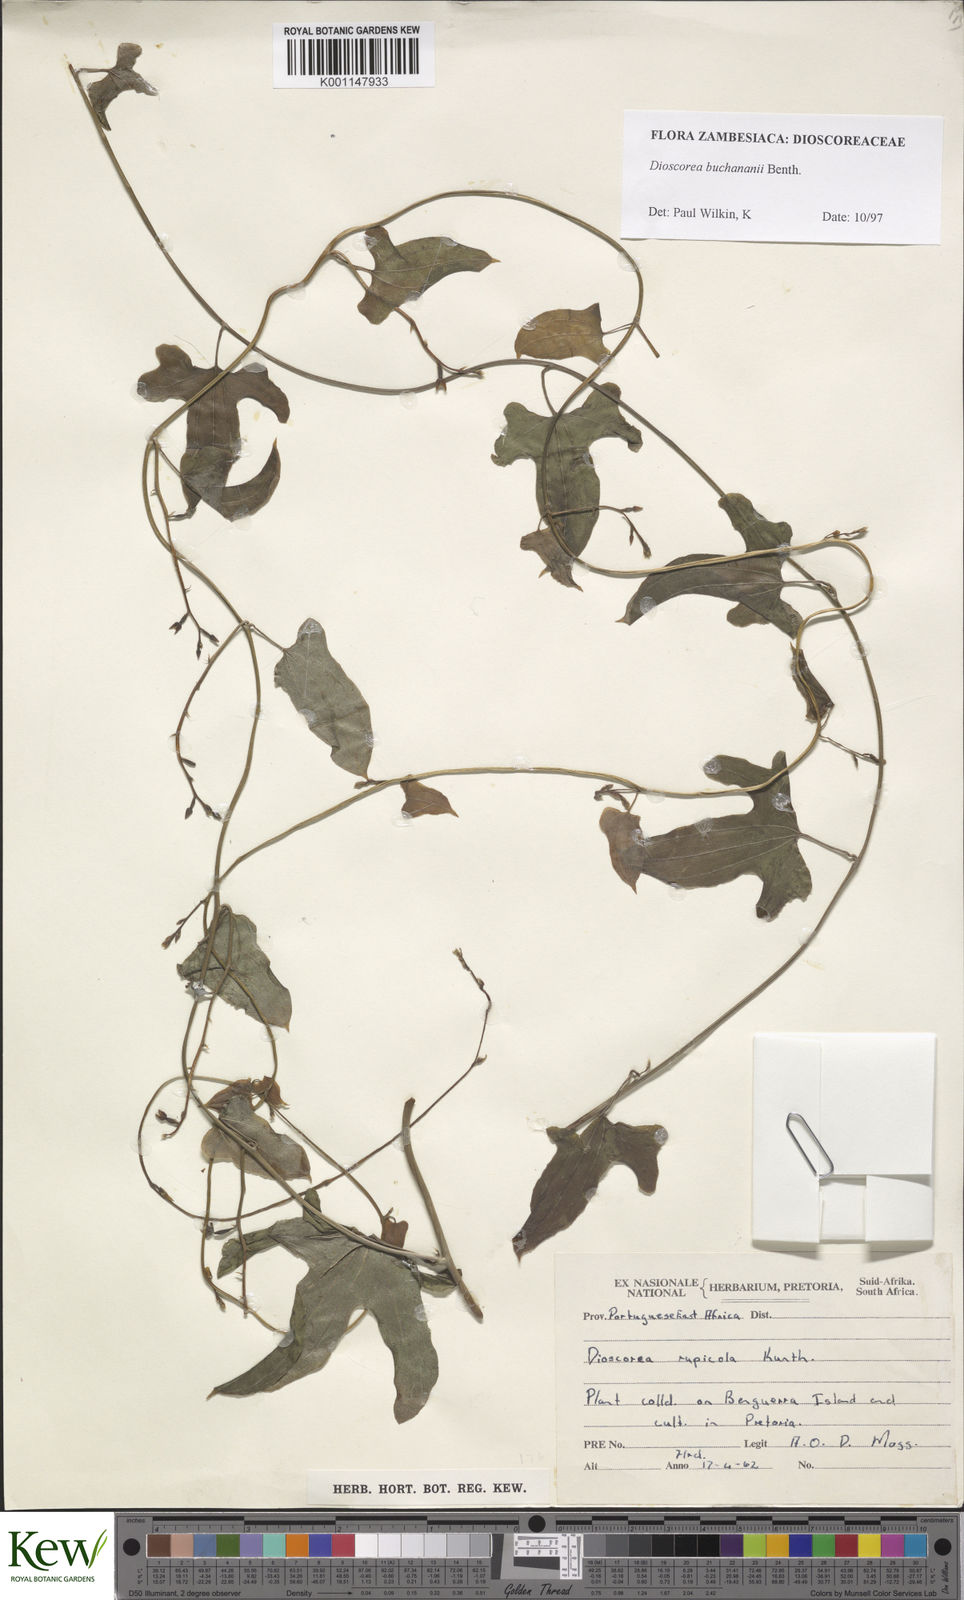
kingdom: Plantae
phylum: Tracheophyta
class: Liliopsida
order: Dioscoreales
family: Dioscoreaceae
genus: Dioscorea
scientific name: Dioscorea buchananii
